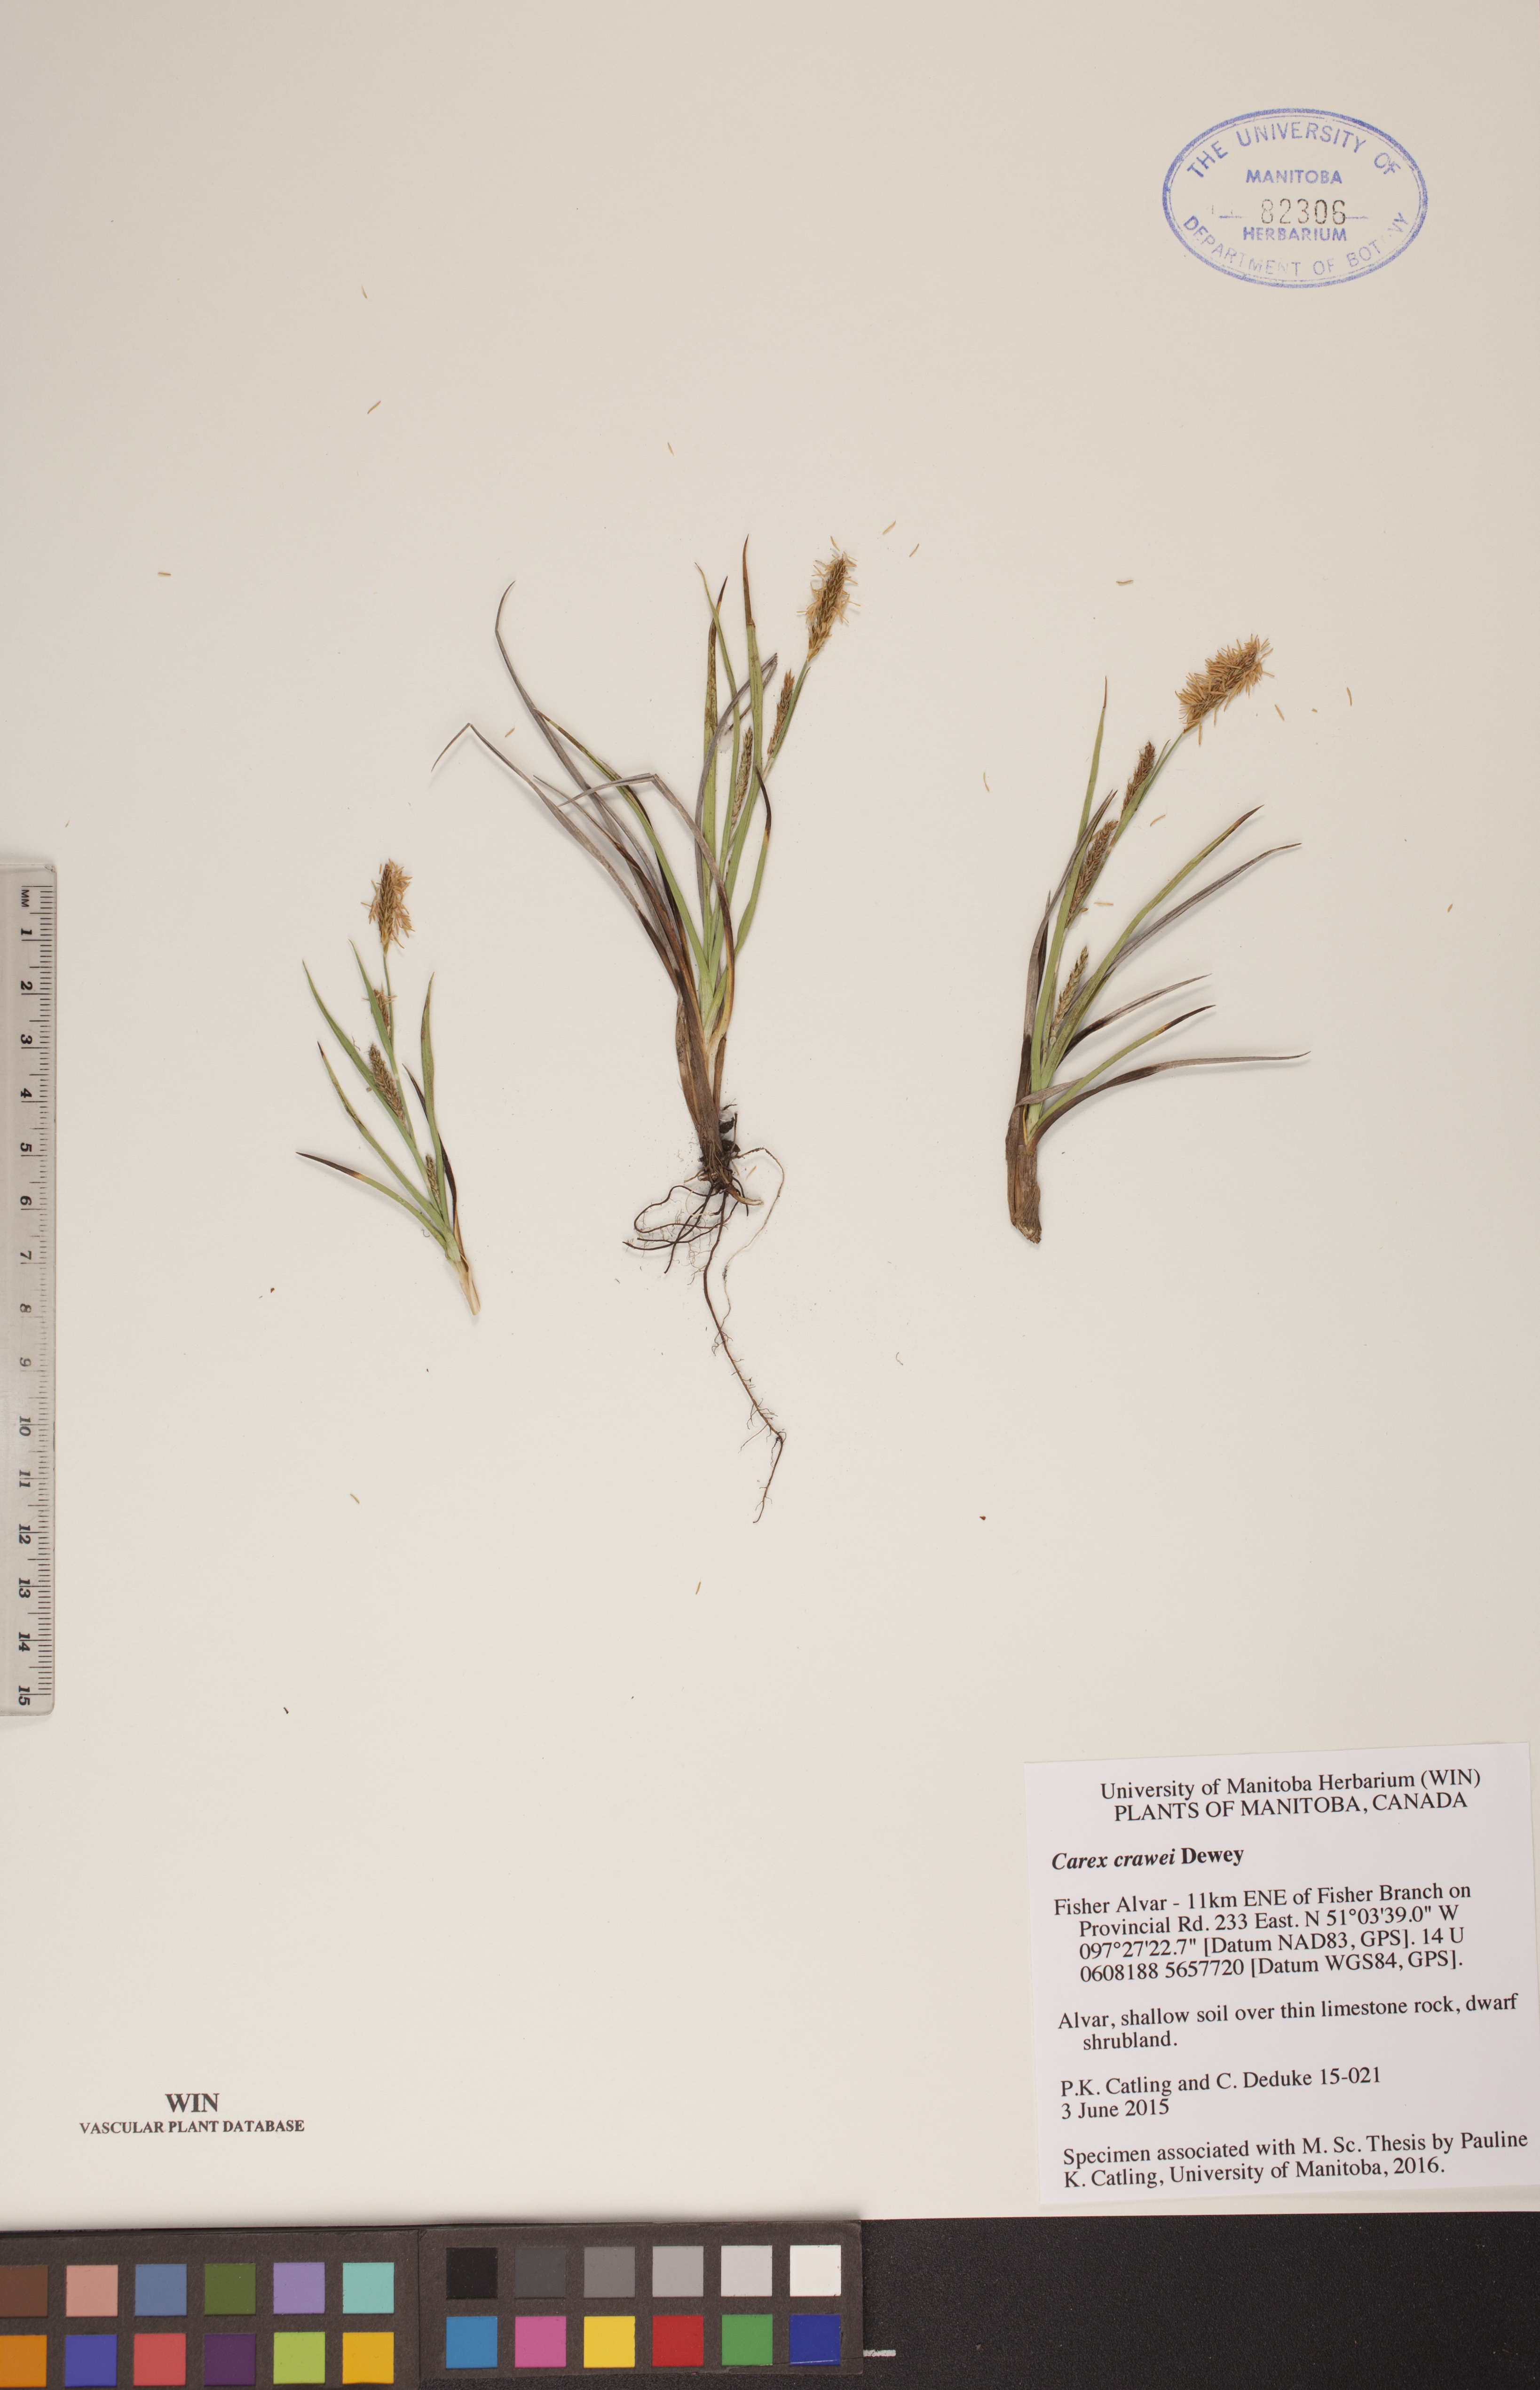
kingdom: Plantae
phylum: Tracheophyta
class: Liliopsida
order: Poales
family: Cyperaceae
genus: Carex
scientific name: Carex crawei
